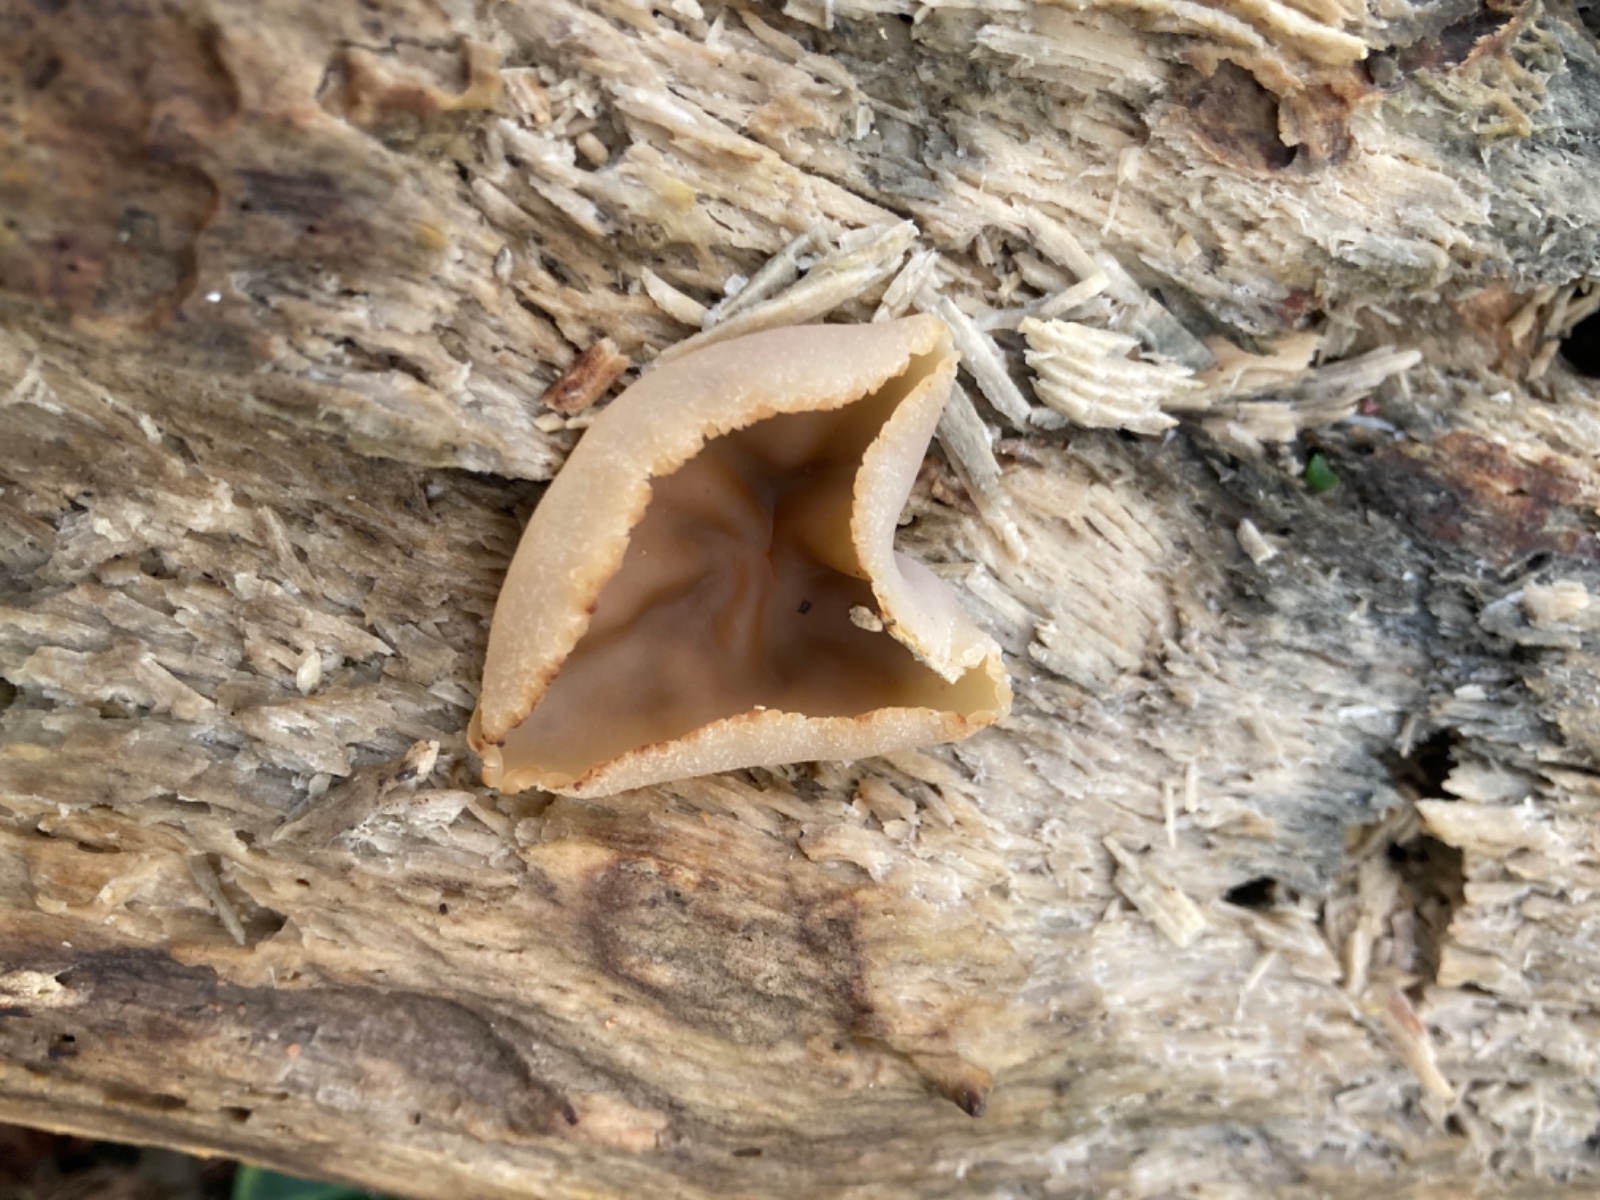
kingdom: Fungi
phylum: Ascomycota
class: Pezizomycetes
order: Pezizales
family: Pezizaceae
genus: Peziza
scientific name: Peziza varia
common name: Ved-bægersvamp
